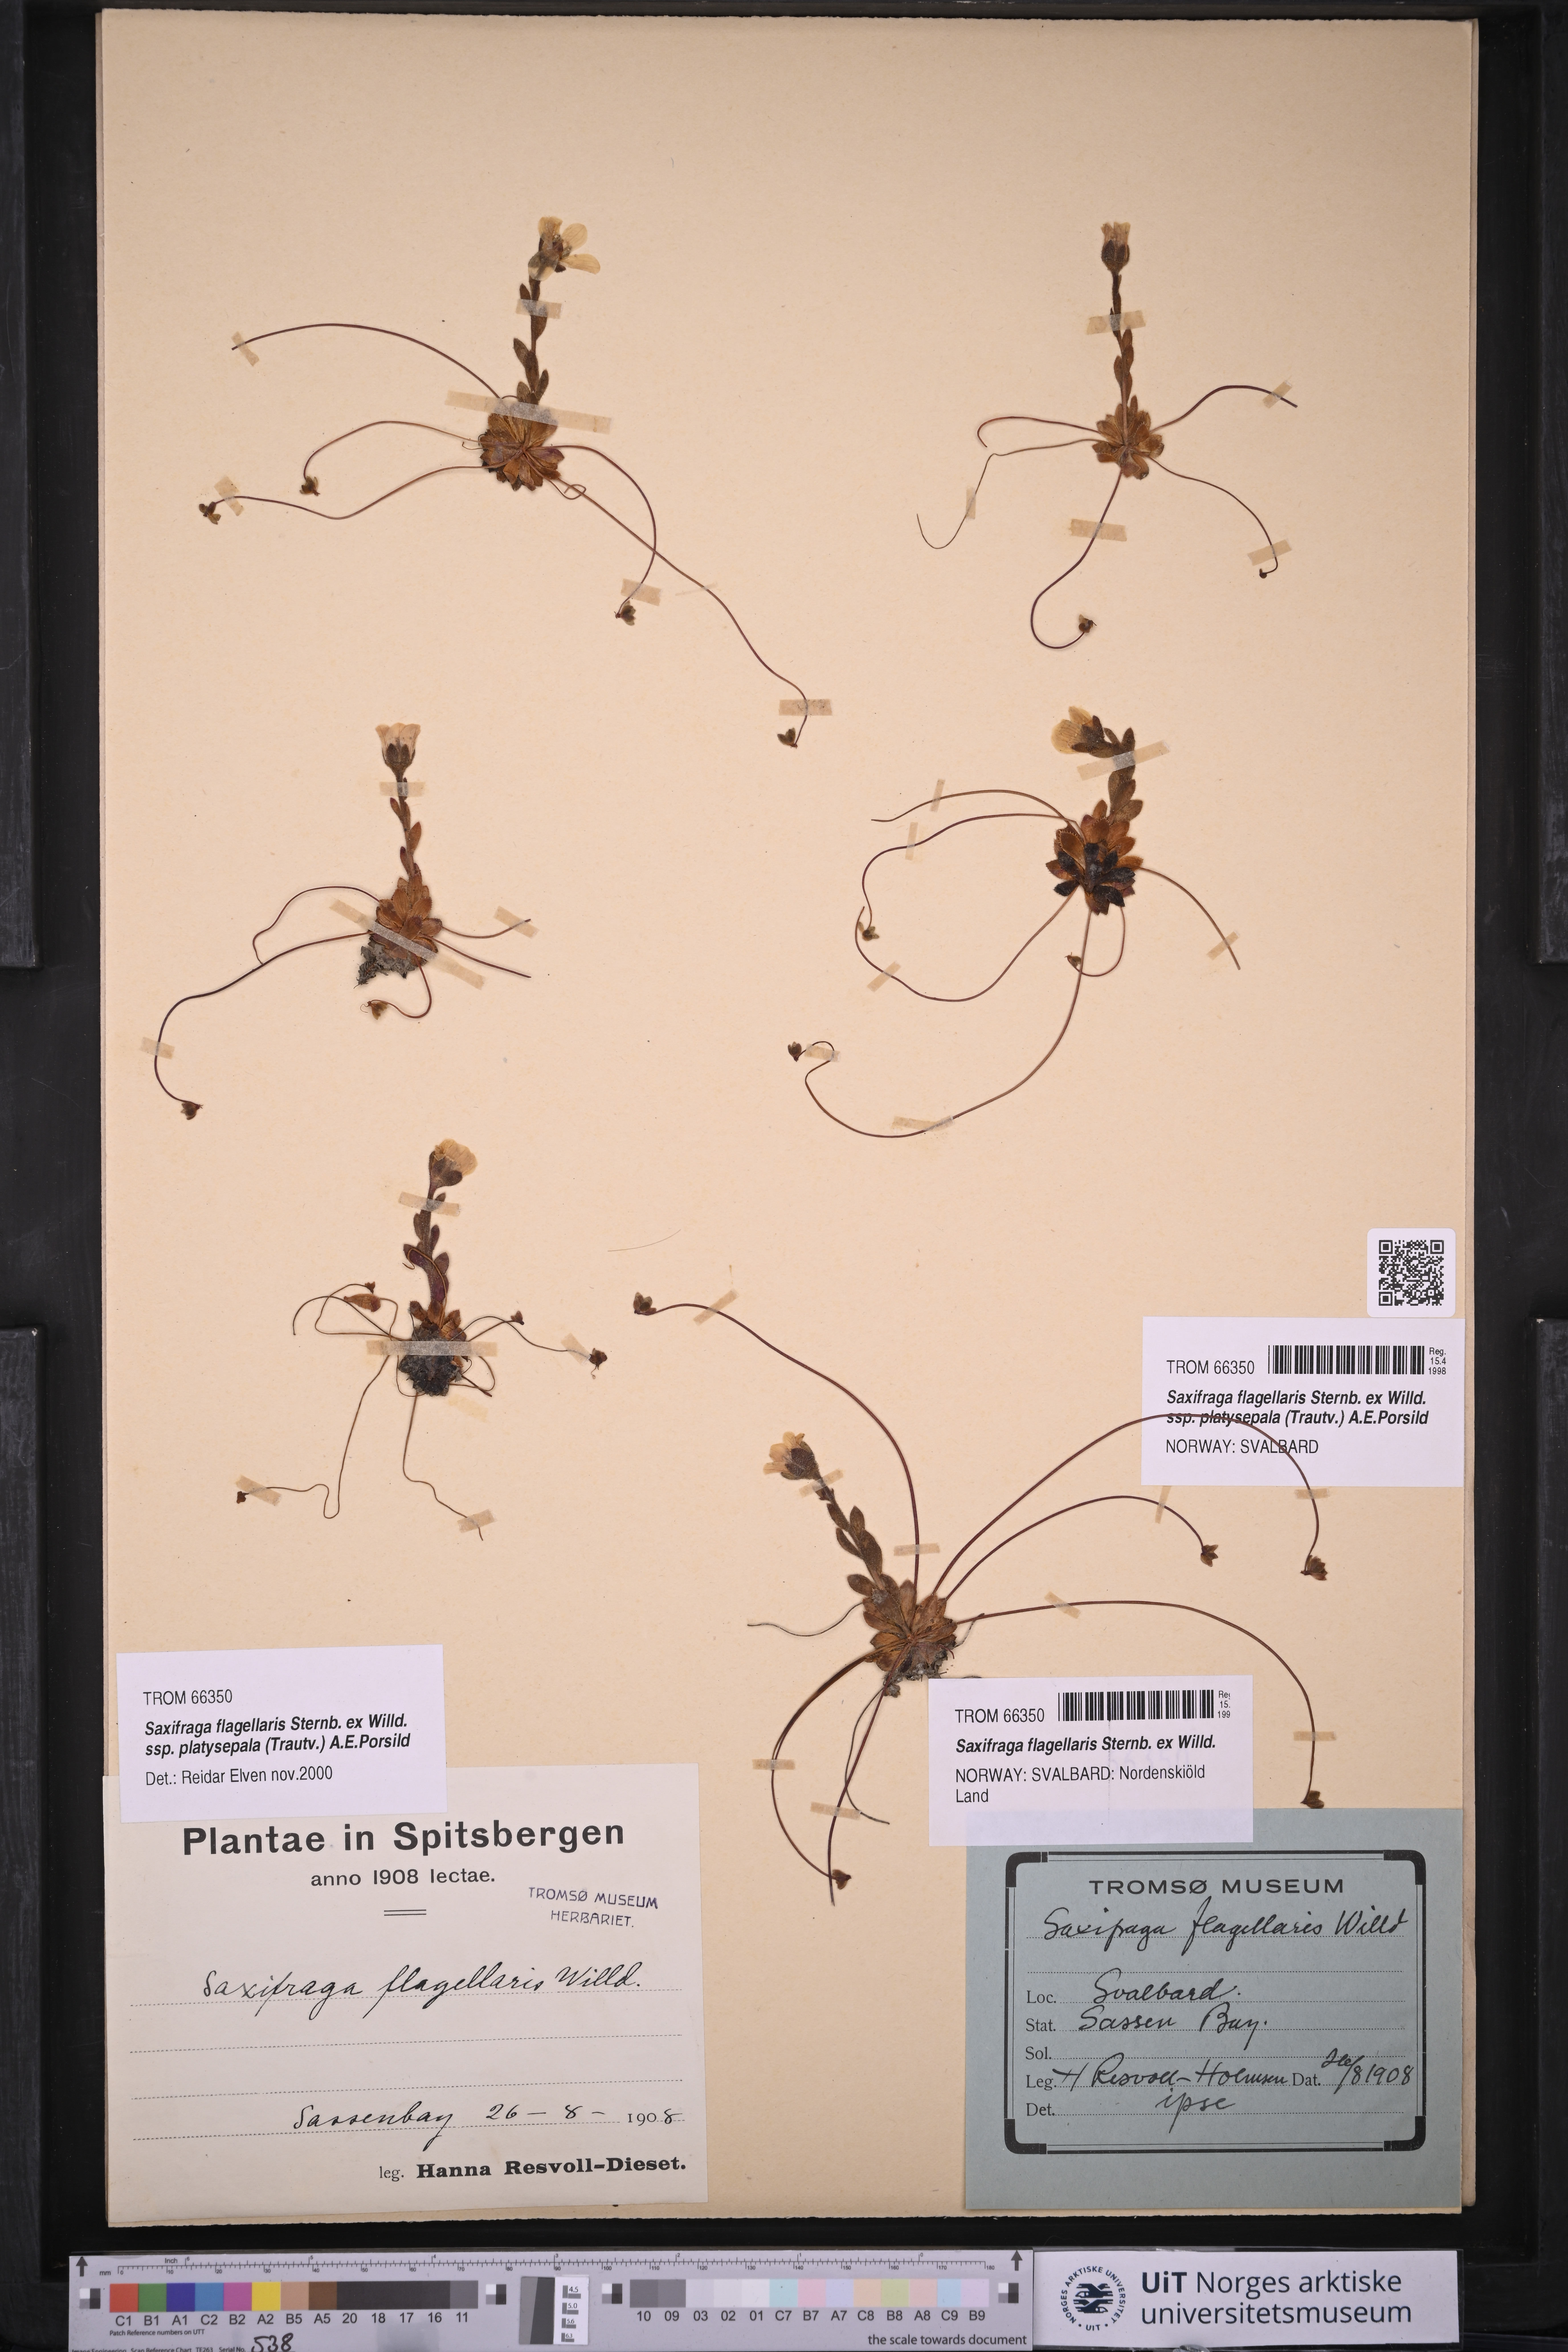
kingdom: Plantae
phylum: Tracheophyta
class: Magnoliopsida
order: Saxifragales
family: Saxifragaceae
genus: Saxifraga
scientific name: Saxifraga platysepala
